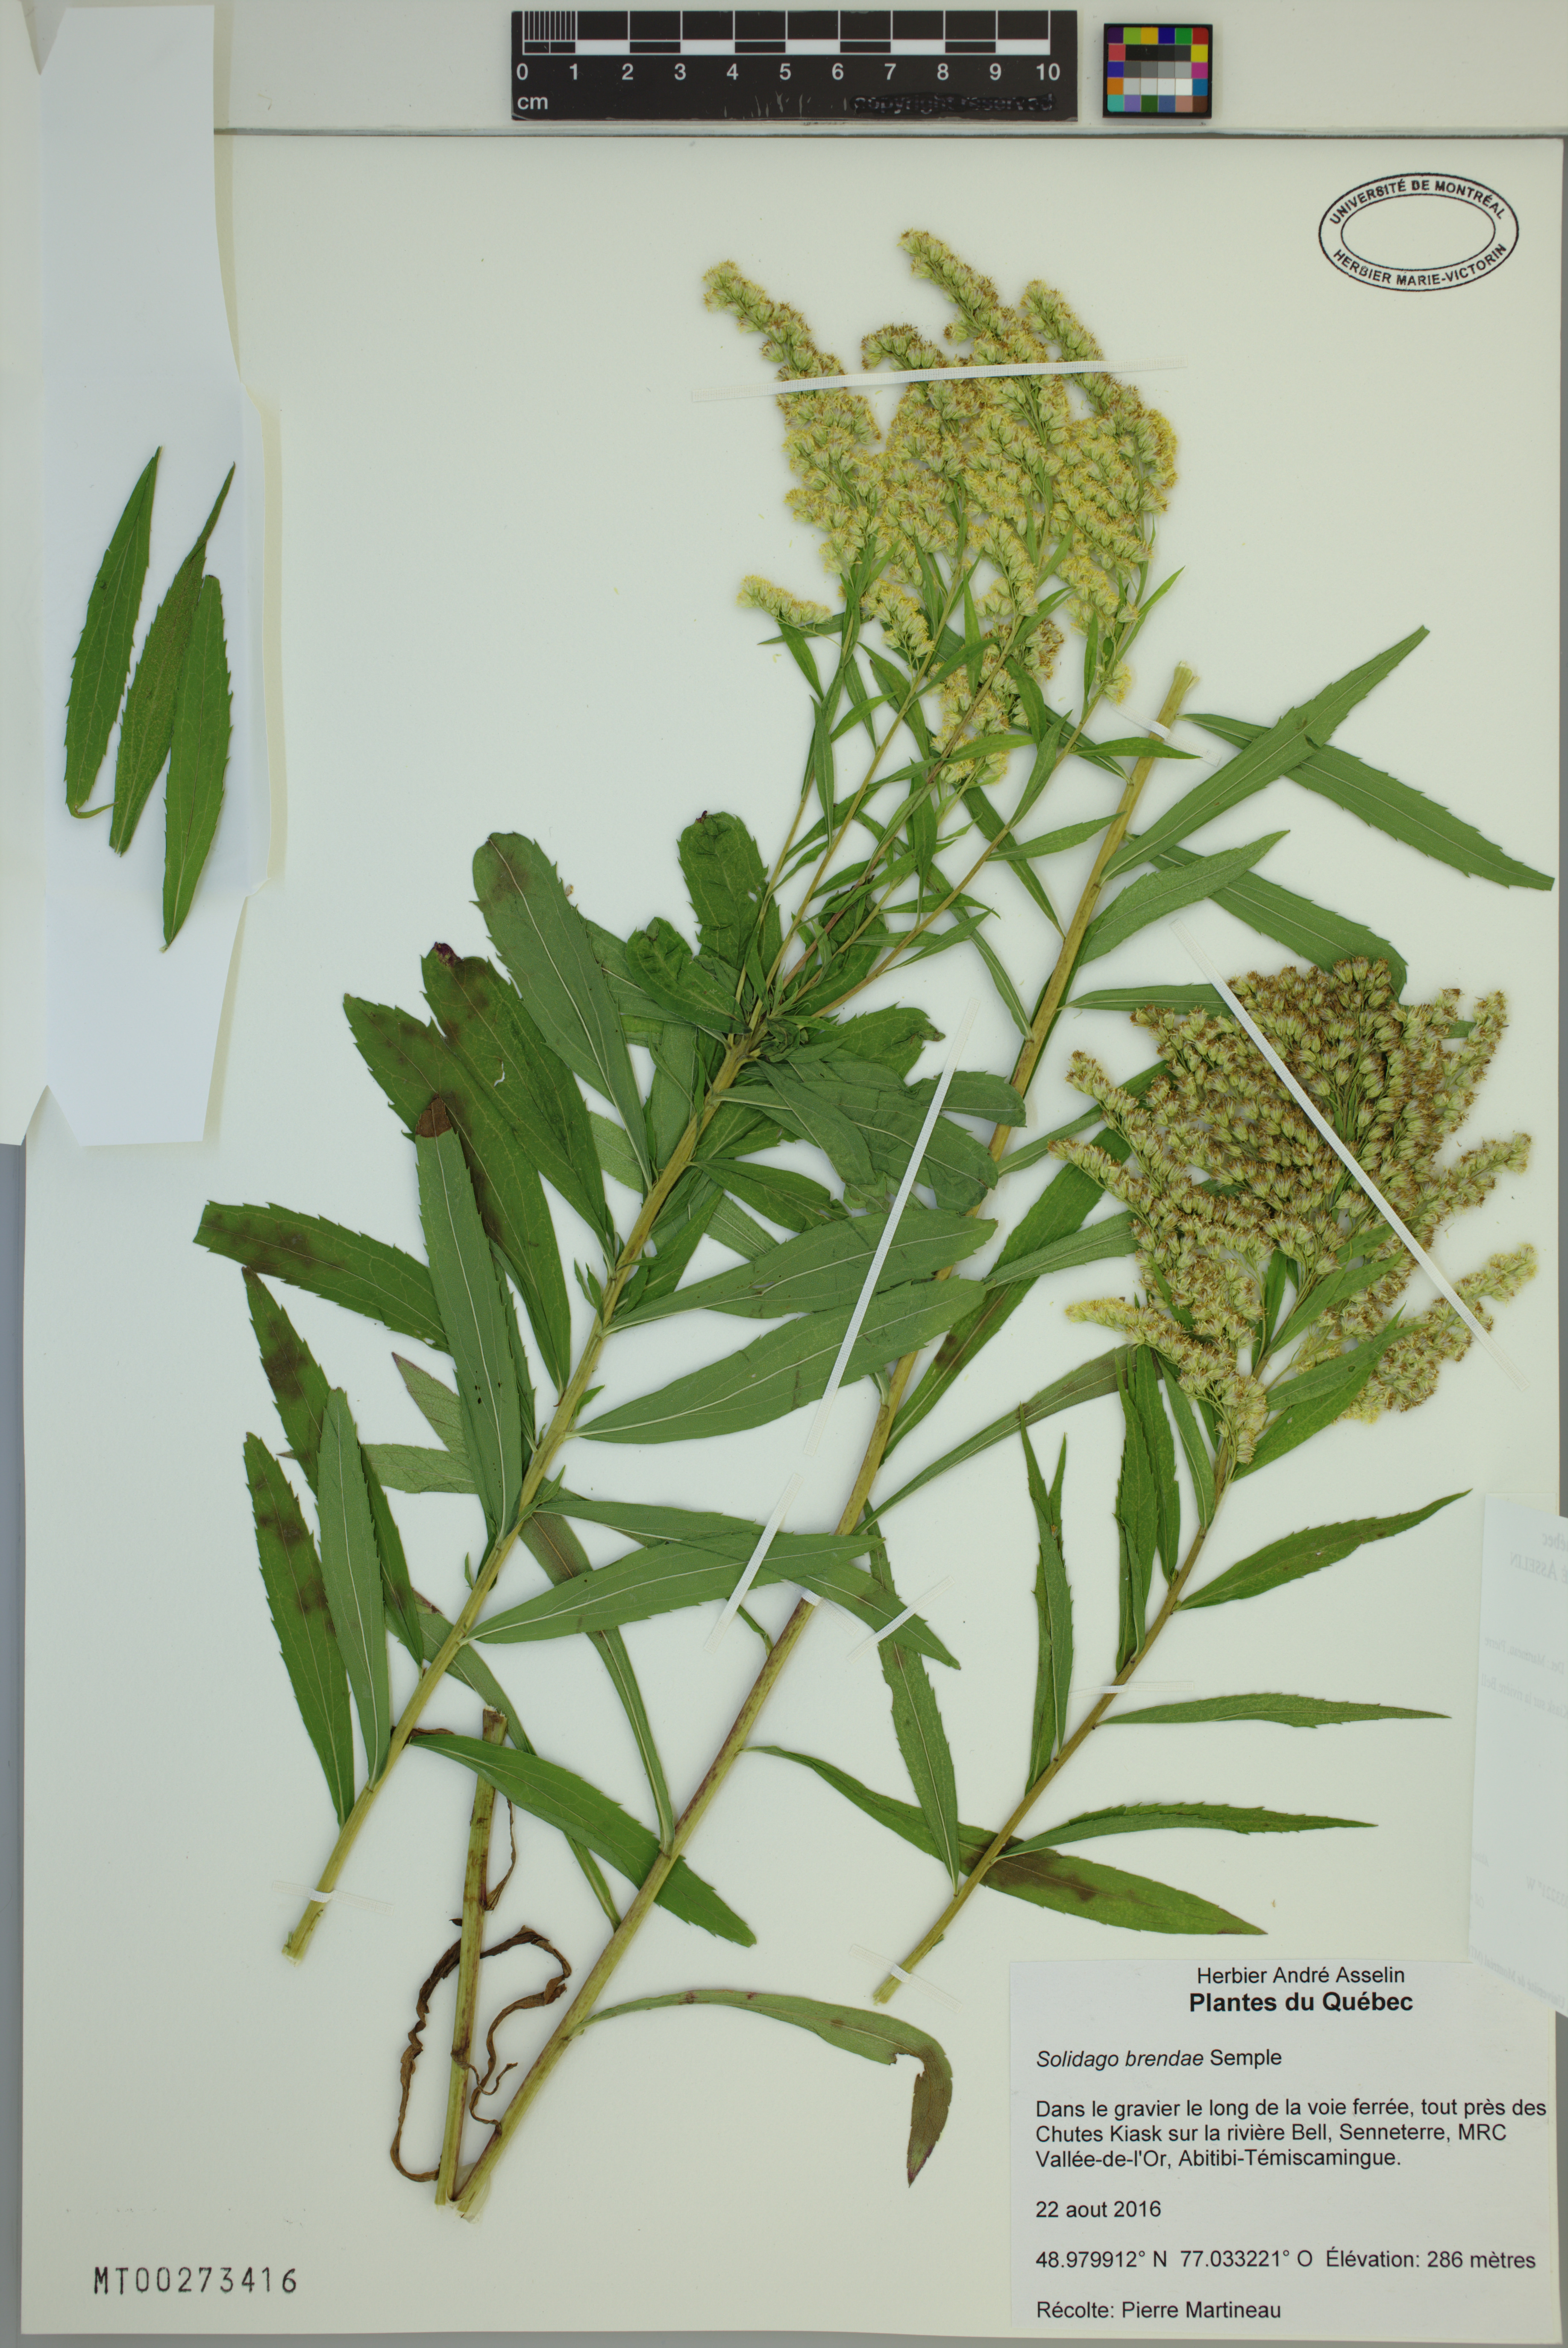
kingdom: Plantae
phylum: Tracheophyta
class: Magnoliopsida
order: Asterales
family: Asteraceae
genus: Solidago
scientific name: Solidago brendae
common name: Brenda's goldenrod
